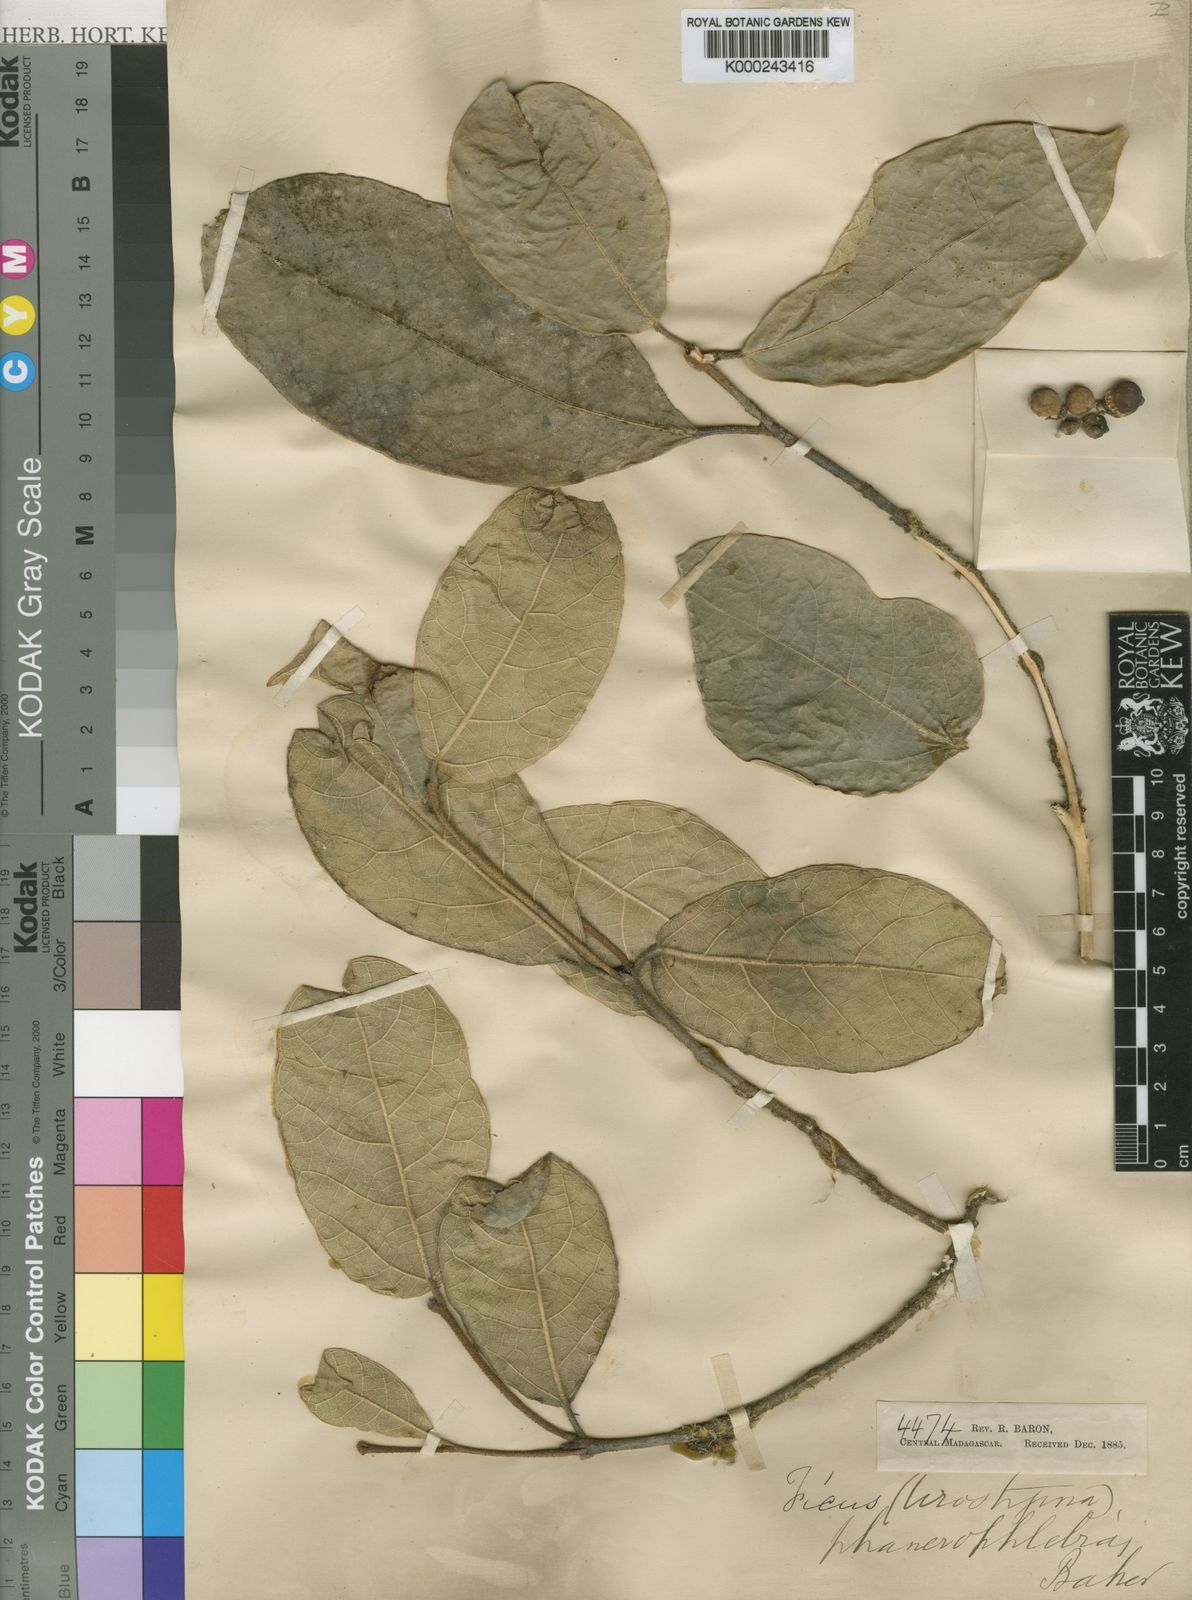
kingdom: Plantae
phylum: Tracheophyta
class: Magnoliopsida
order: Rosales
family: Moraceae
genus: Ficus
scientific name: Ficus brachyclada
